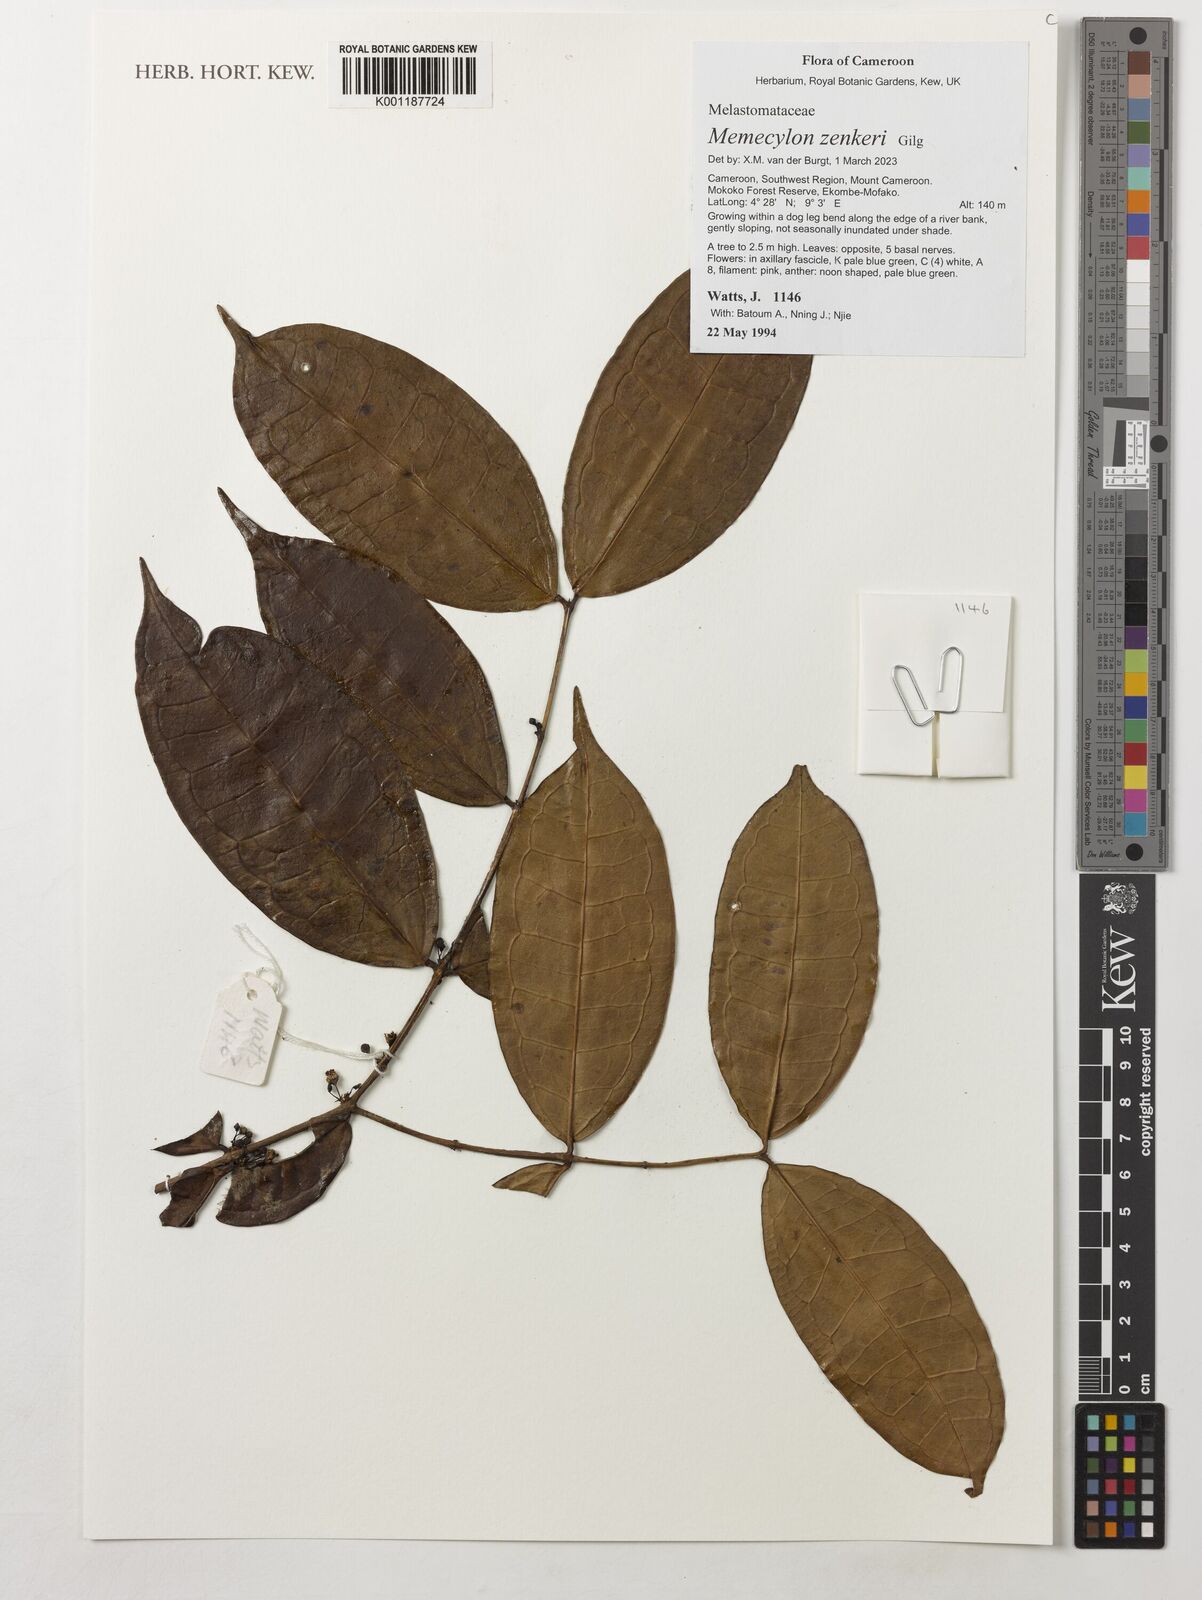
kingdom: Plantae
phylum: Tracheophyta
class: Magnoliopsida
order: Myrtales
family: Melastomataceae
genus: Memecylon
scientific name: Memecylon zenkeri
